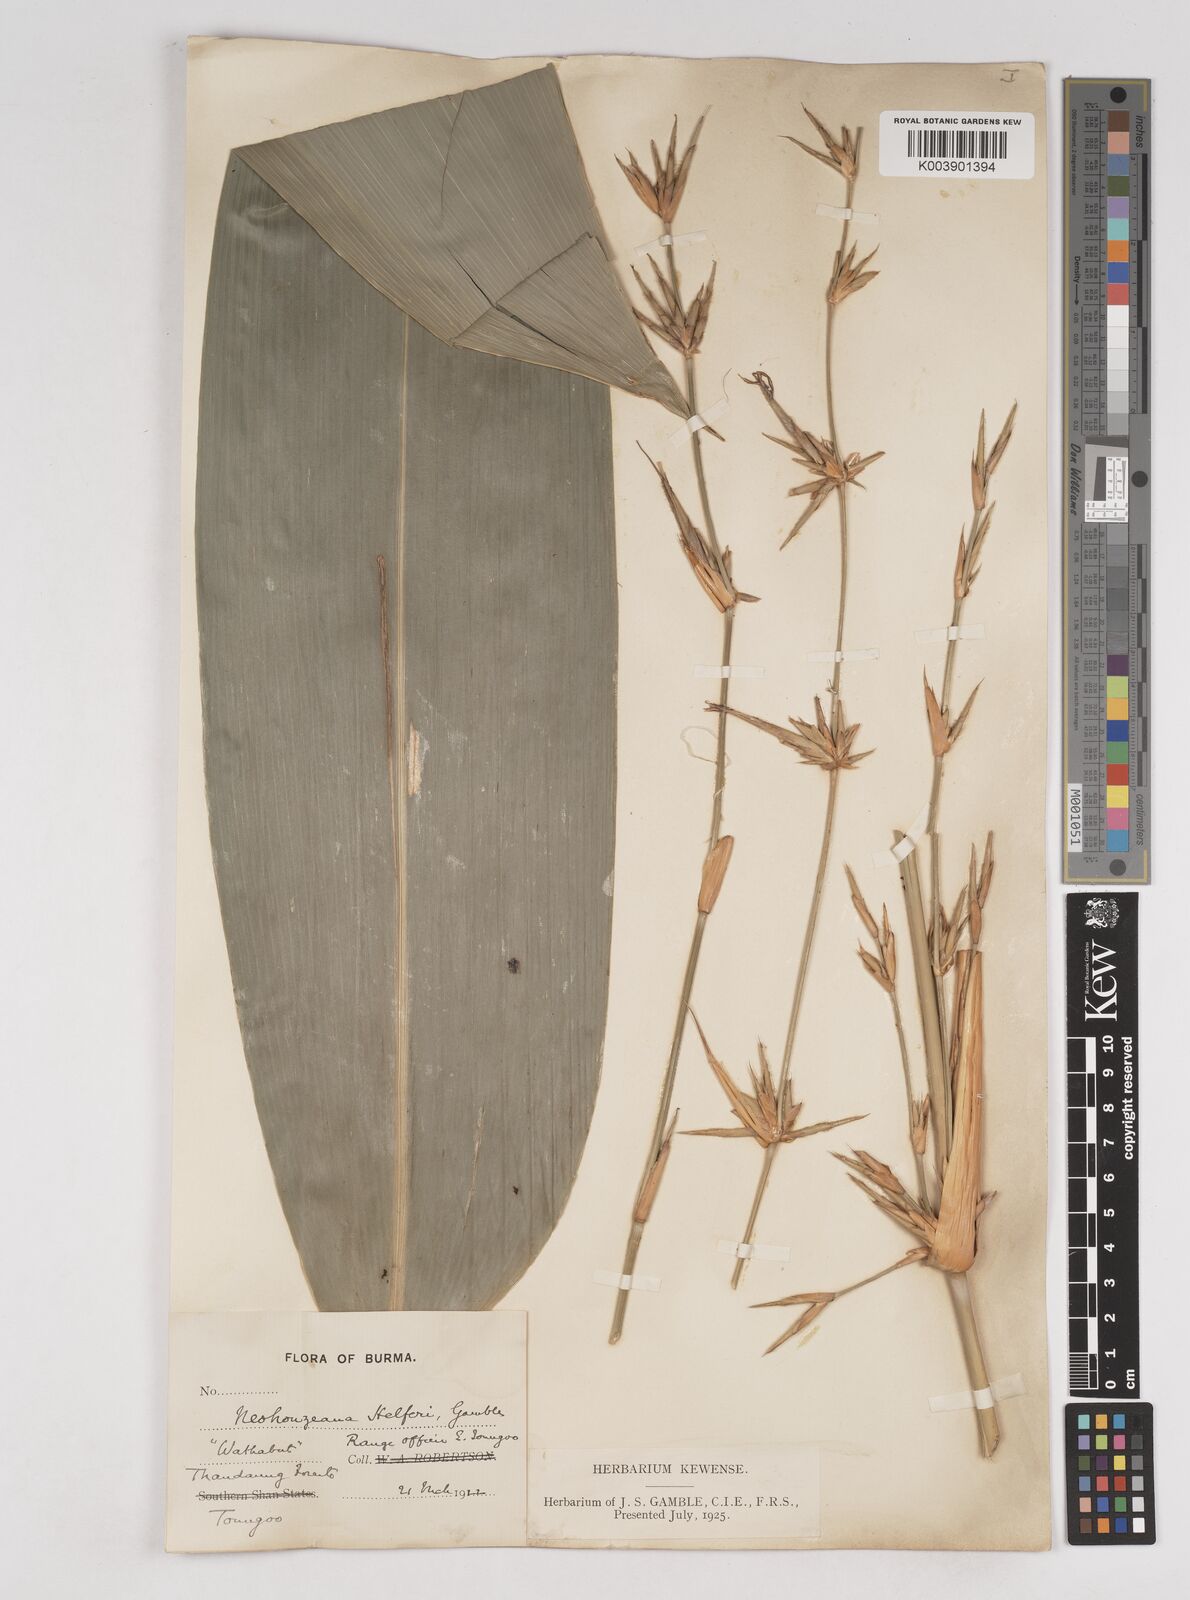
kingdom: Plantae
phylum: Tracheophyta
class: Liliopsida
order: Poales
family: Poaceae
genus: Schizostachyum
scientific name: Schizostachyum helferi
